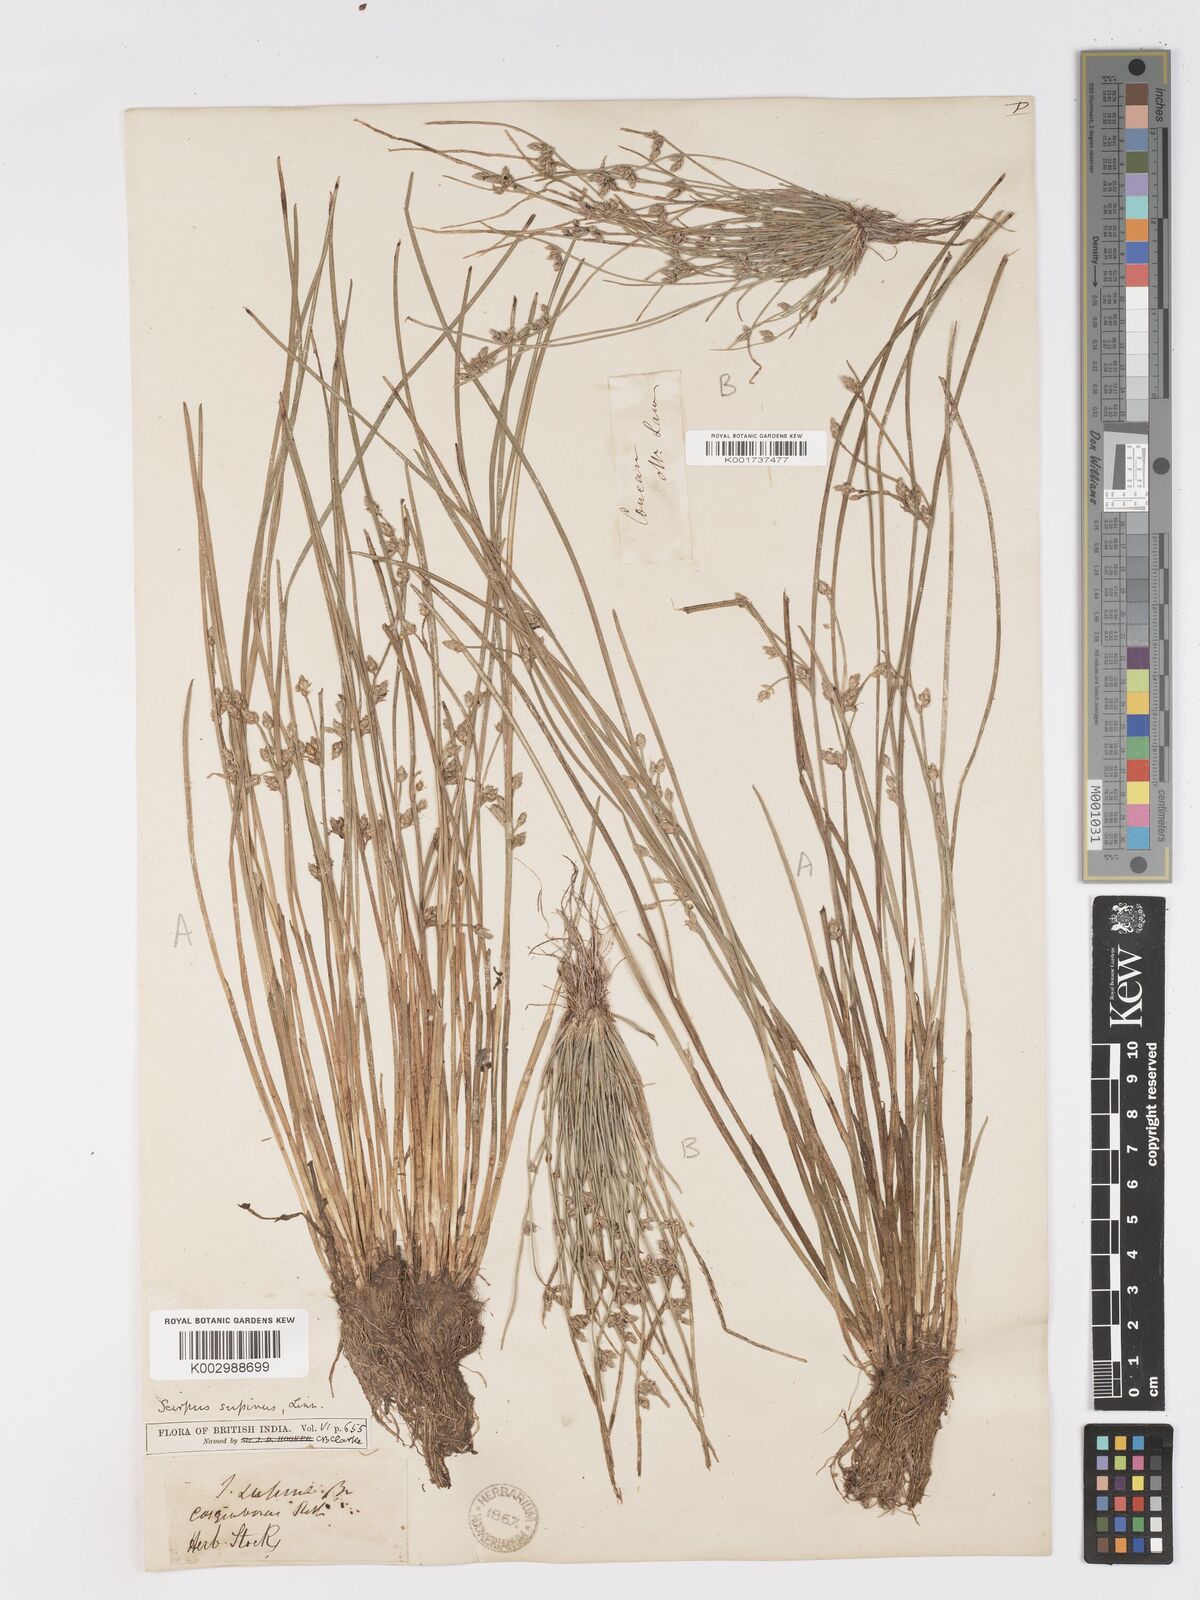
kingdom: Plantae
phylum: Tracheophyta
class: Liliopsida
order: Poales
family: Cyperaceae
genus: Schoenoplectiella
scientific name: Schoenoplectiella lateriflora
